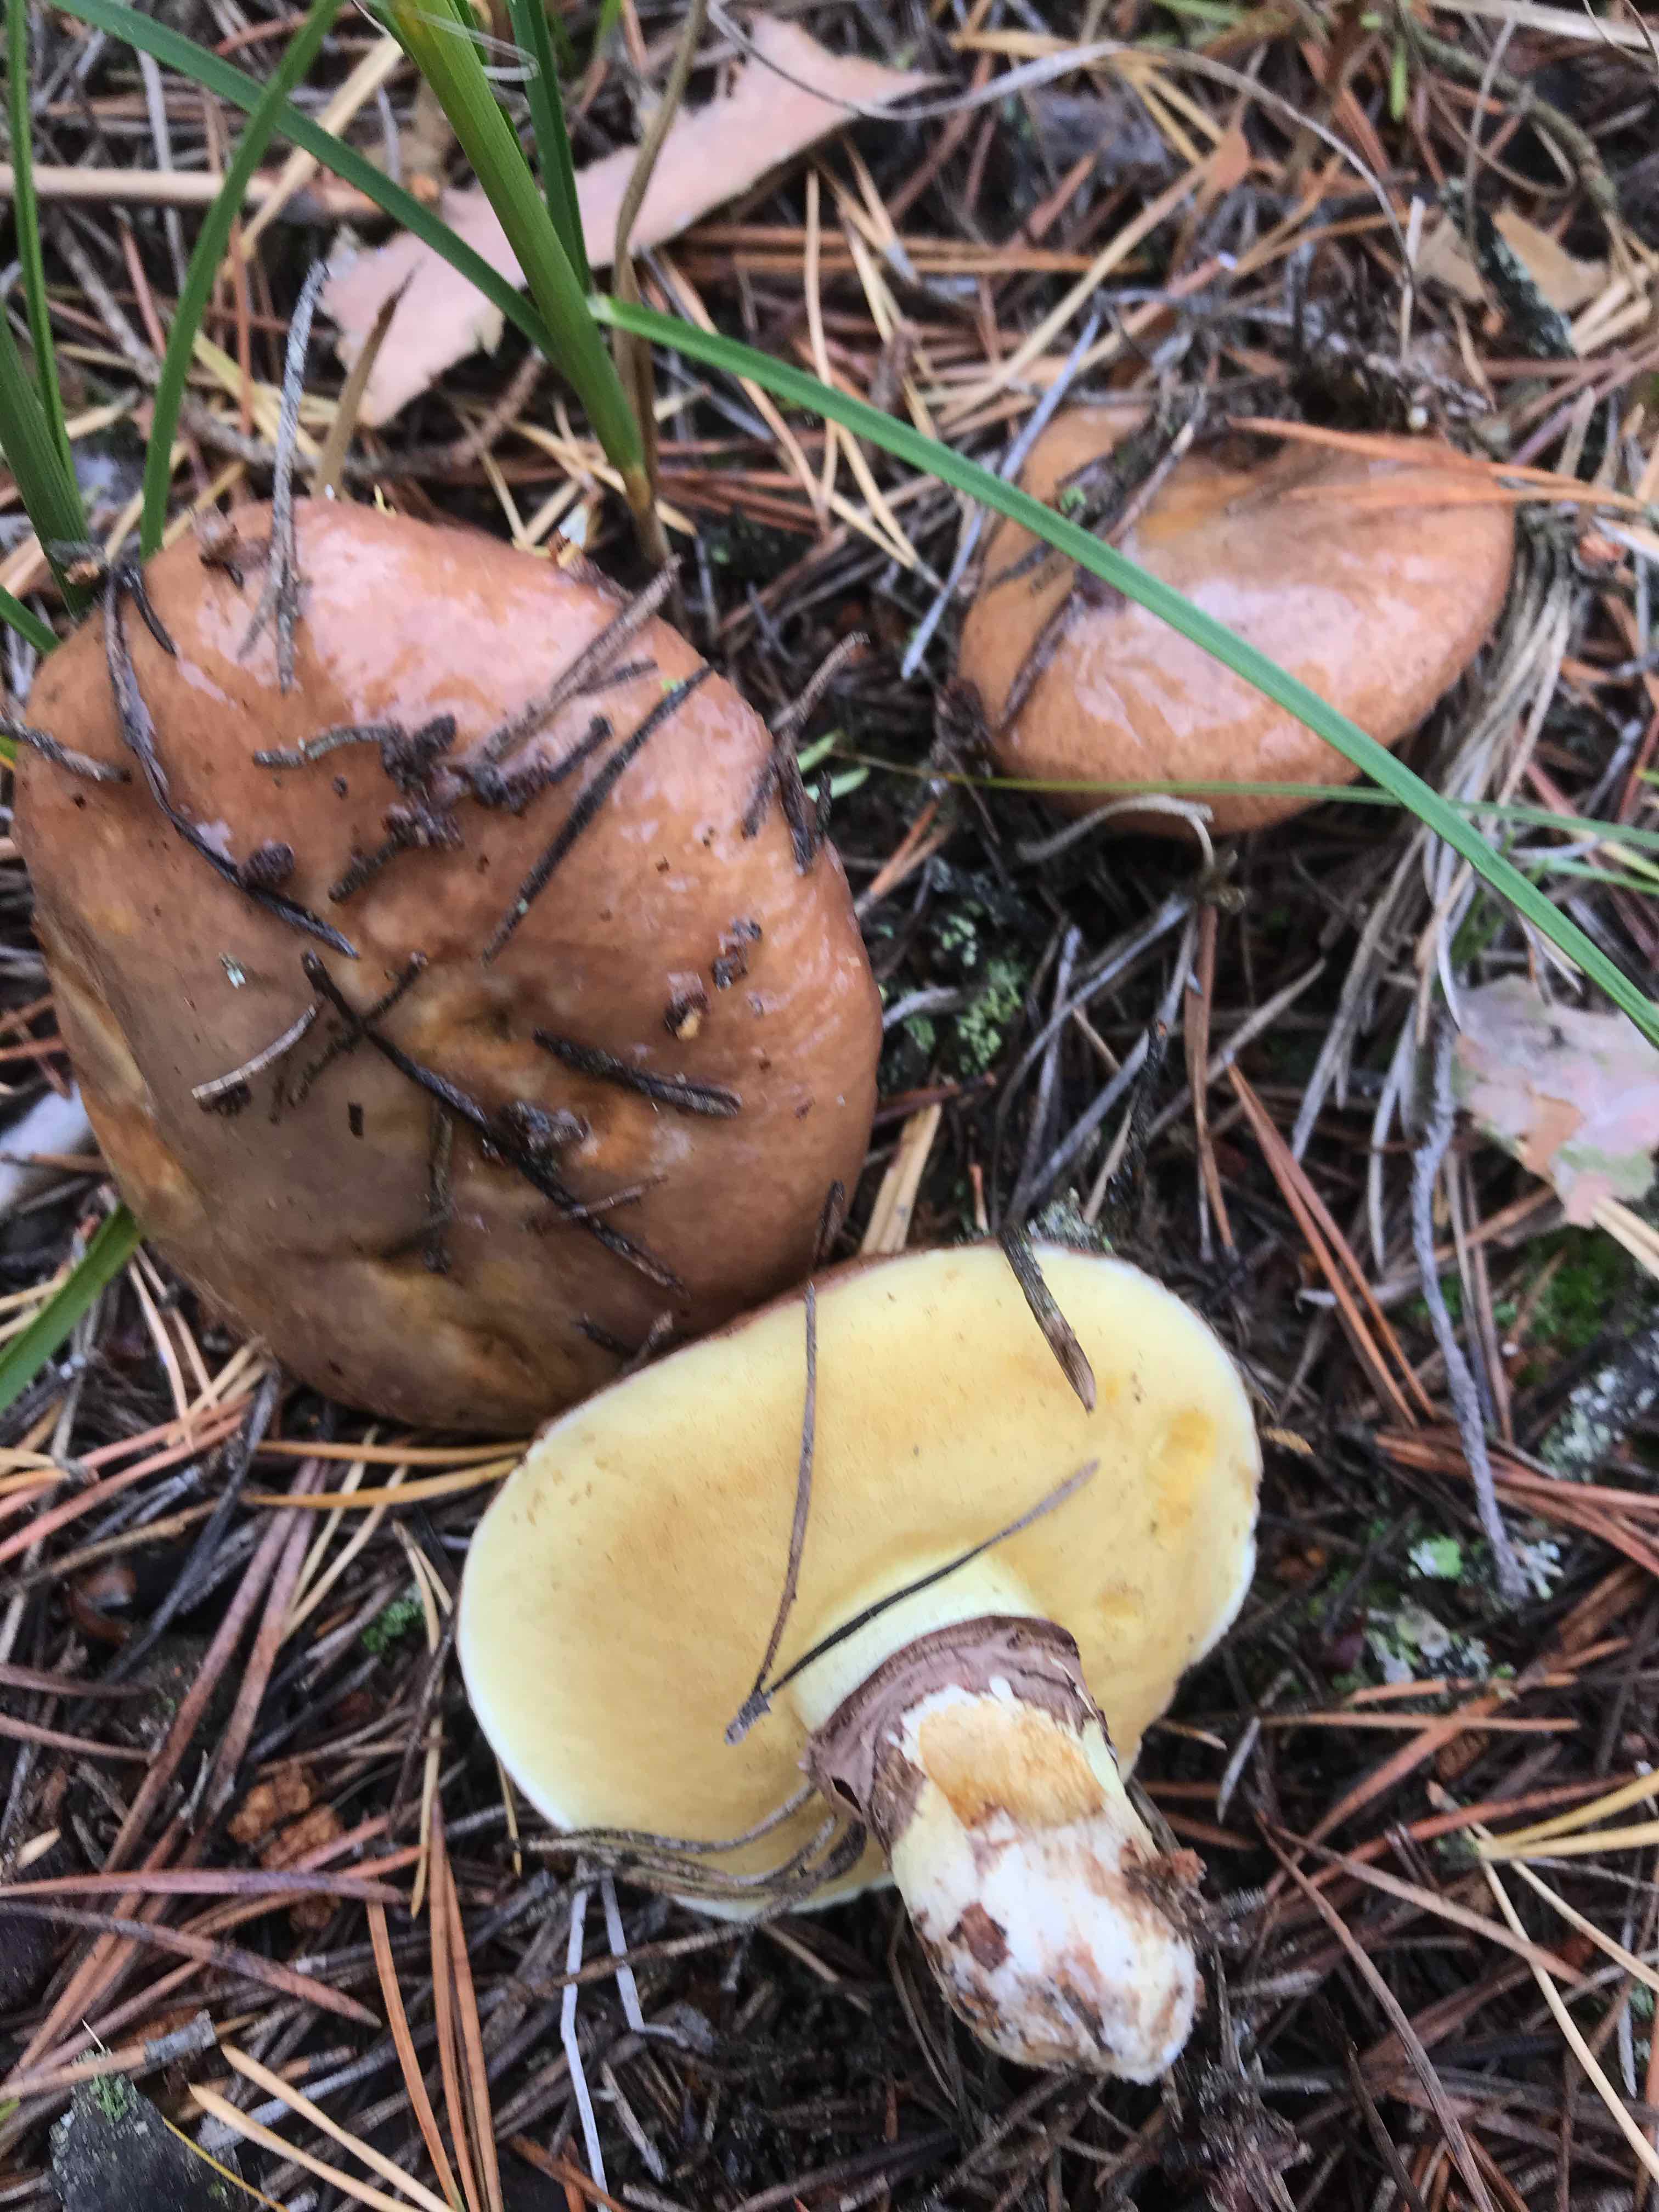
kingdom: Fungi
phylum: Basidiomycota
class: Agaricomycetes
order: Boletales
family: Suillaceae
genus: Suillus
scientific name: Suillus luteus
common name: brungul slimrørhat
